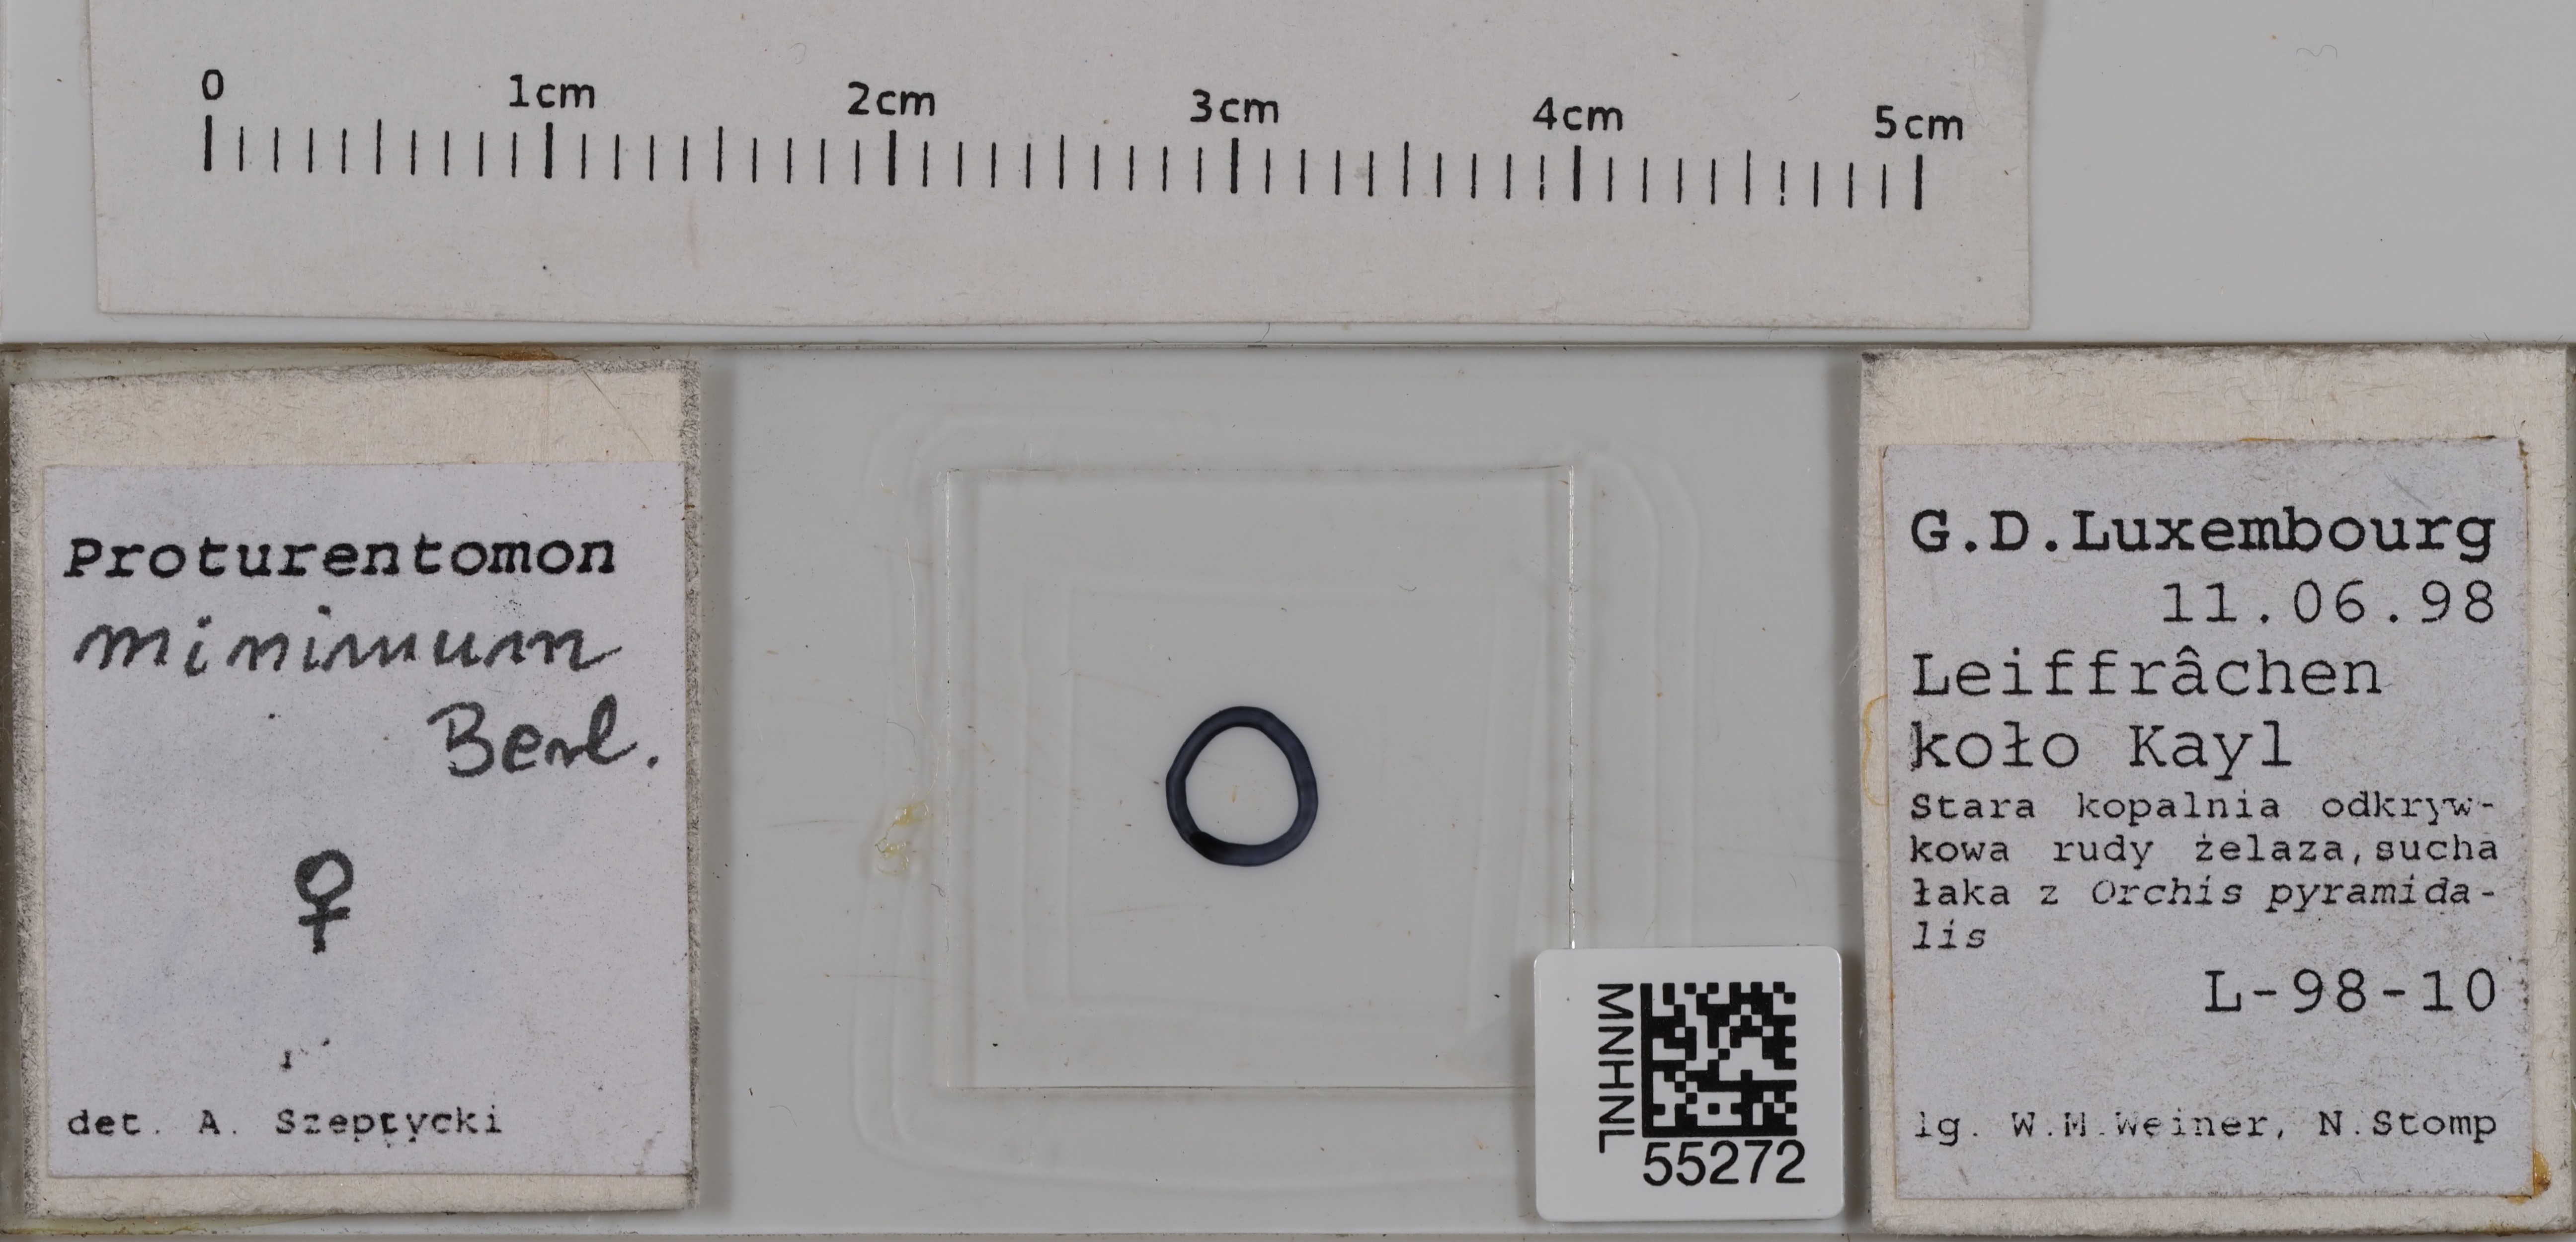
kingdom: Animalia
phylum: Arthropoda
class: Protura
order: Protura
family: Protentomidae
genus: Proturentomon
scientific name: Proturentomon minimum
